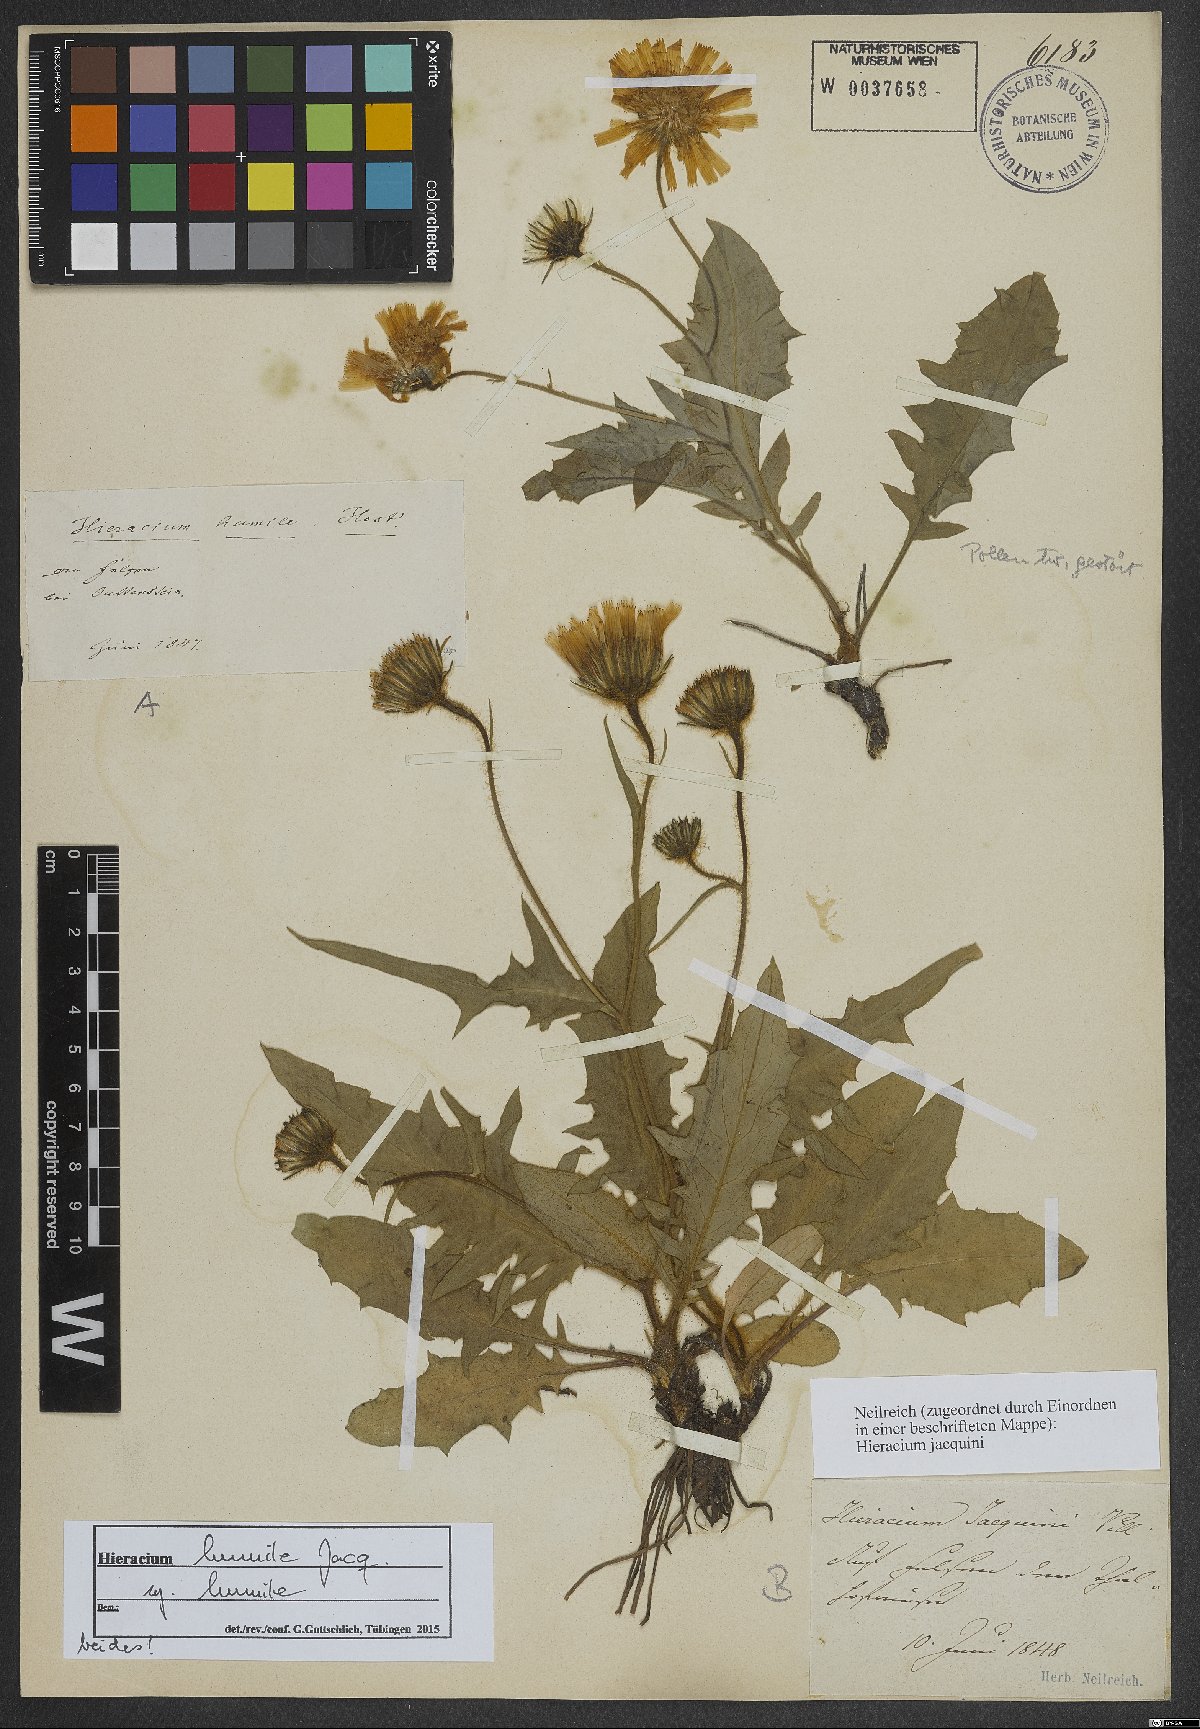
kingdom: Plantae
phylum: Tracheophyta
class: Magnoliopsida
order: Asterales
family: Asteraceae
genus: Hieracium
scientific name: Hieracium humile
